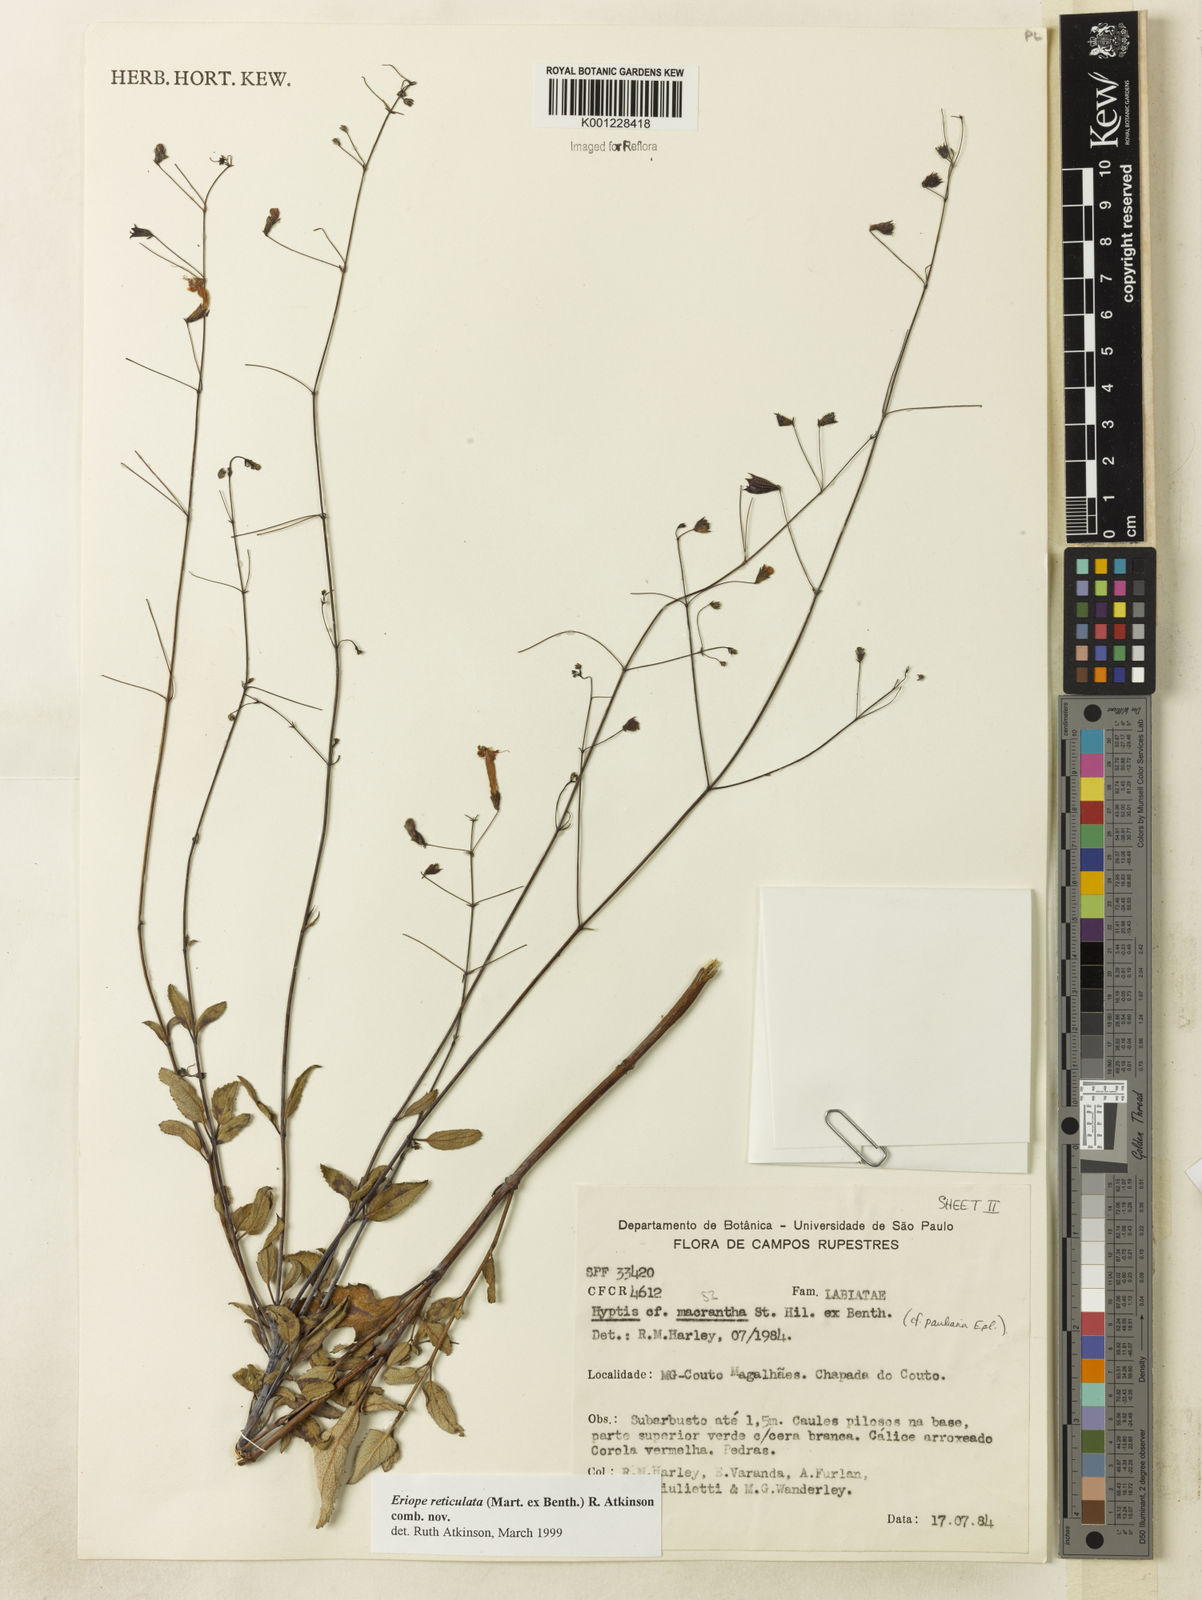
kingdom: Plantae
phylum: Tracheophyta
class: Magnoliopsida
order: Lamiales
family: Lamiaceae
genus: Hypenia
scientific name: Hypenia reticulata
